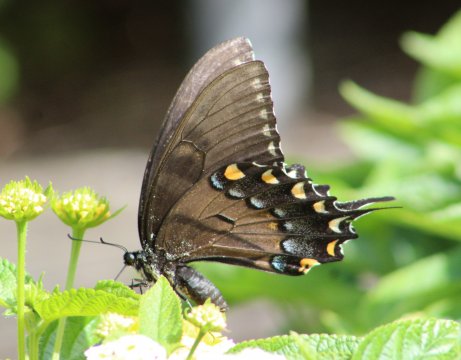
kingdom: Animalia
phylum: Arthropoda
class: Insecta
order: Lepidoptera
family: Papilionidae
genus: Pterourus
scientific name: Pterourus glaucus
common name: Eastern Tiger Swallowtail
